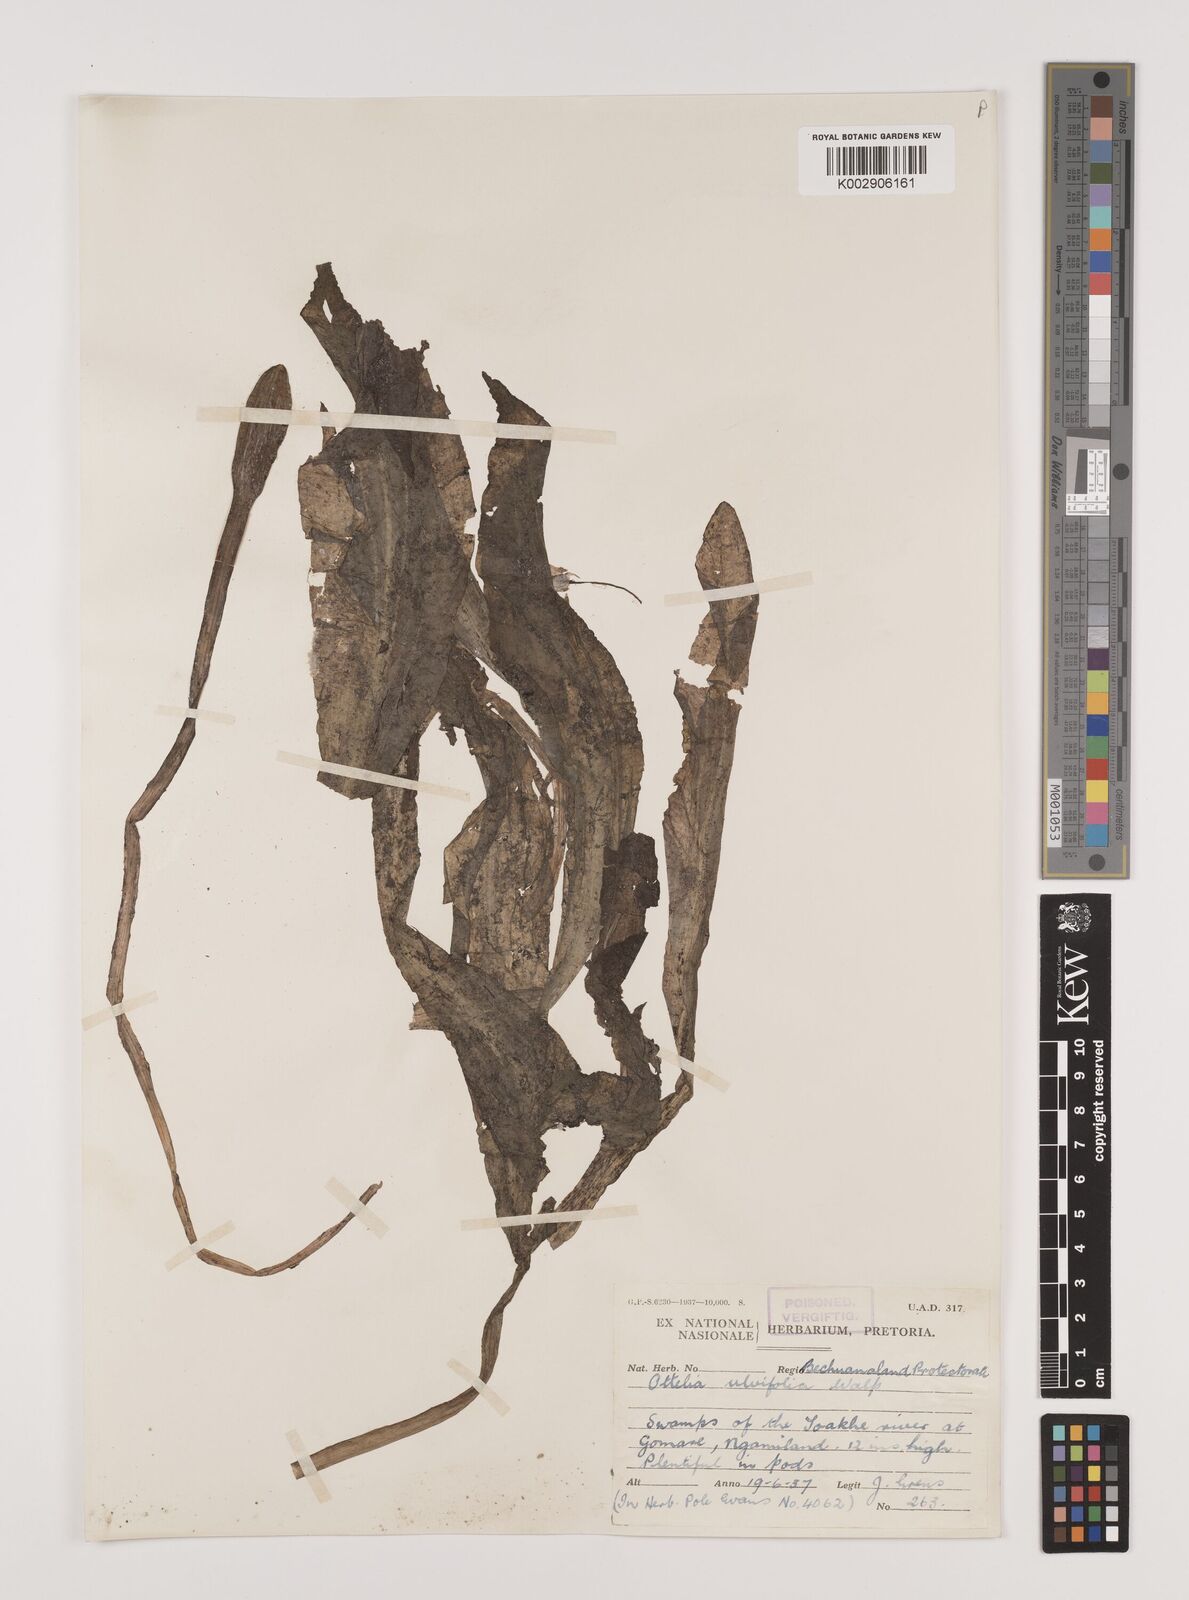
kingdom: Plantae
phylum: Tracheophyta
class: Liliopsida
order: Alismatales
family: Hydrocharitaceae
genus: Ottelia
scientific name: Ottelia ulvifolia
